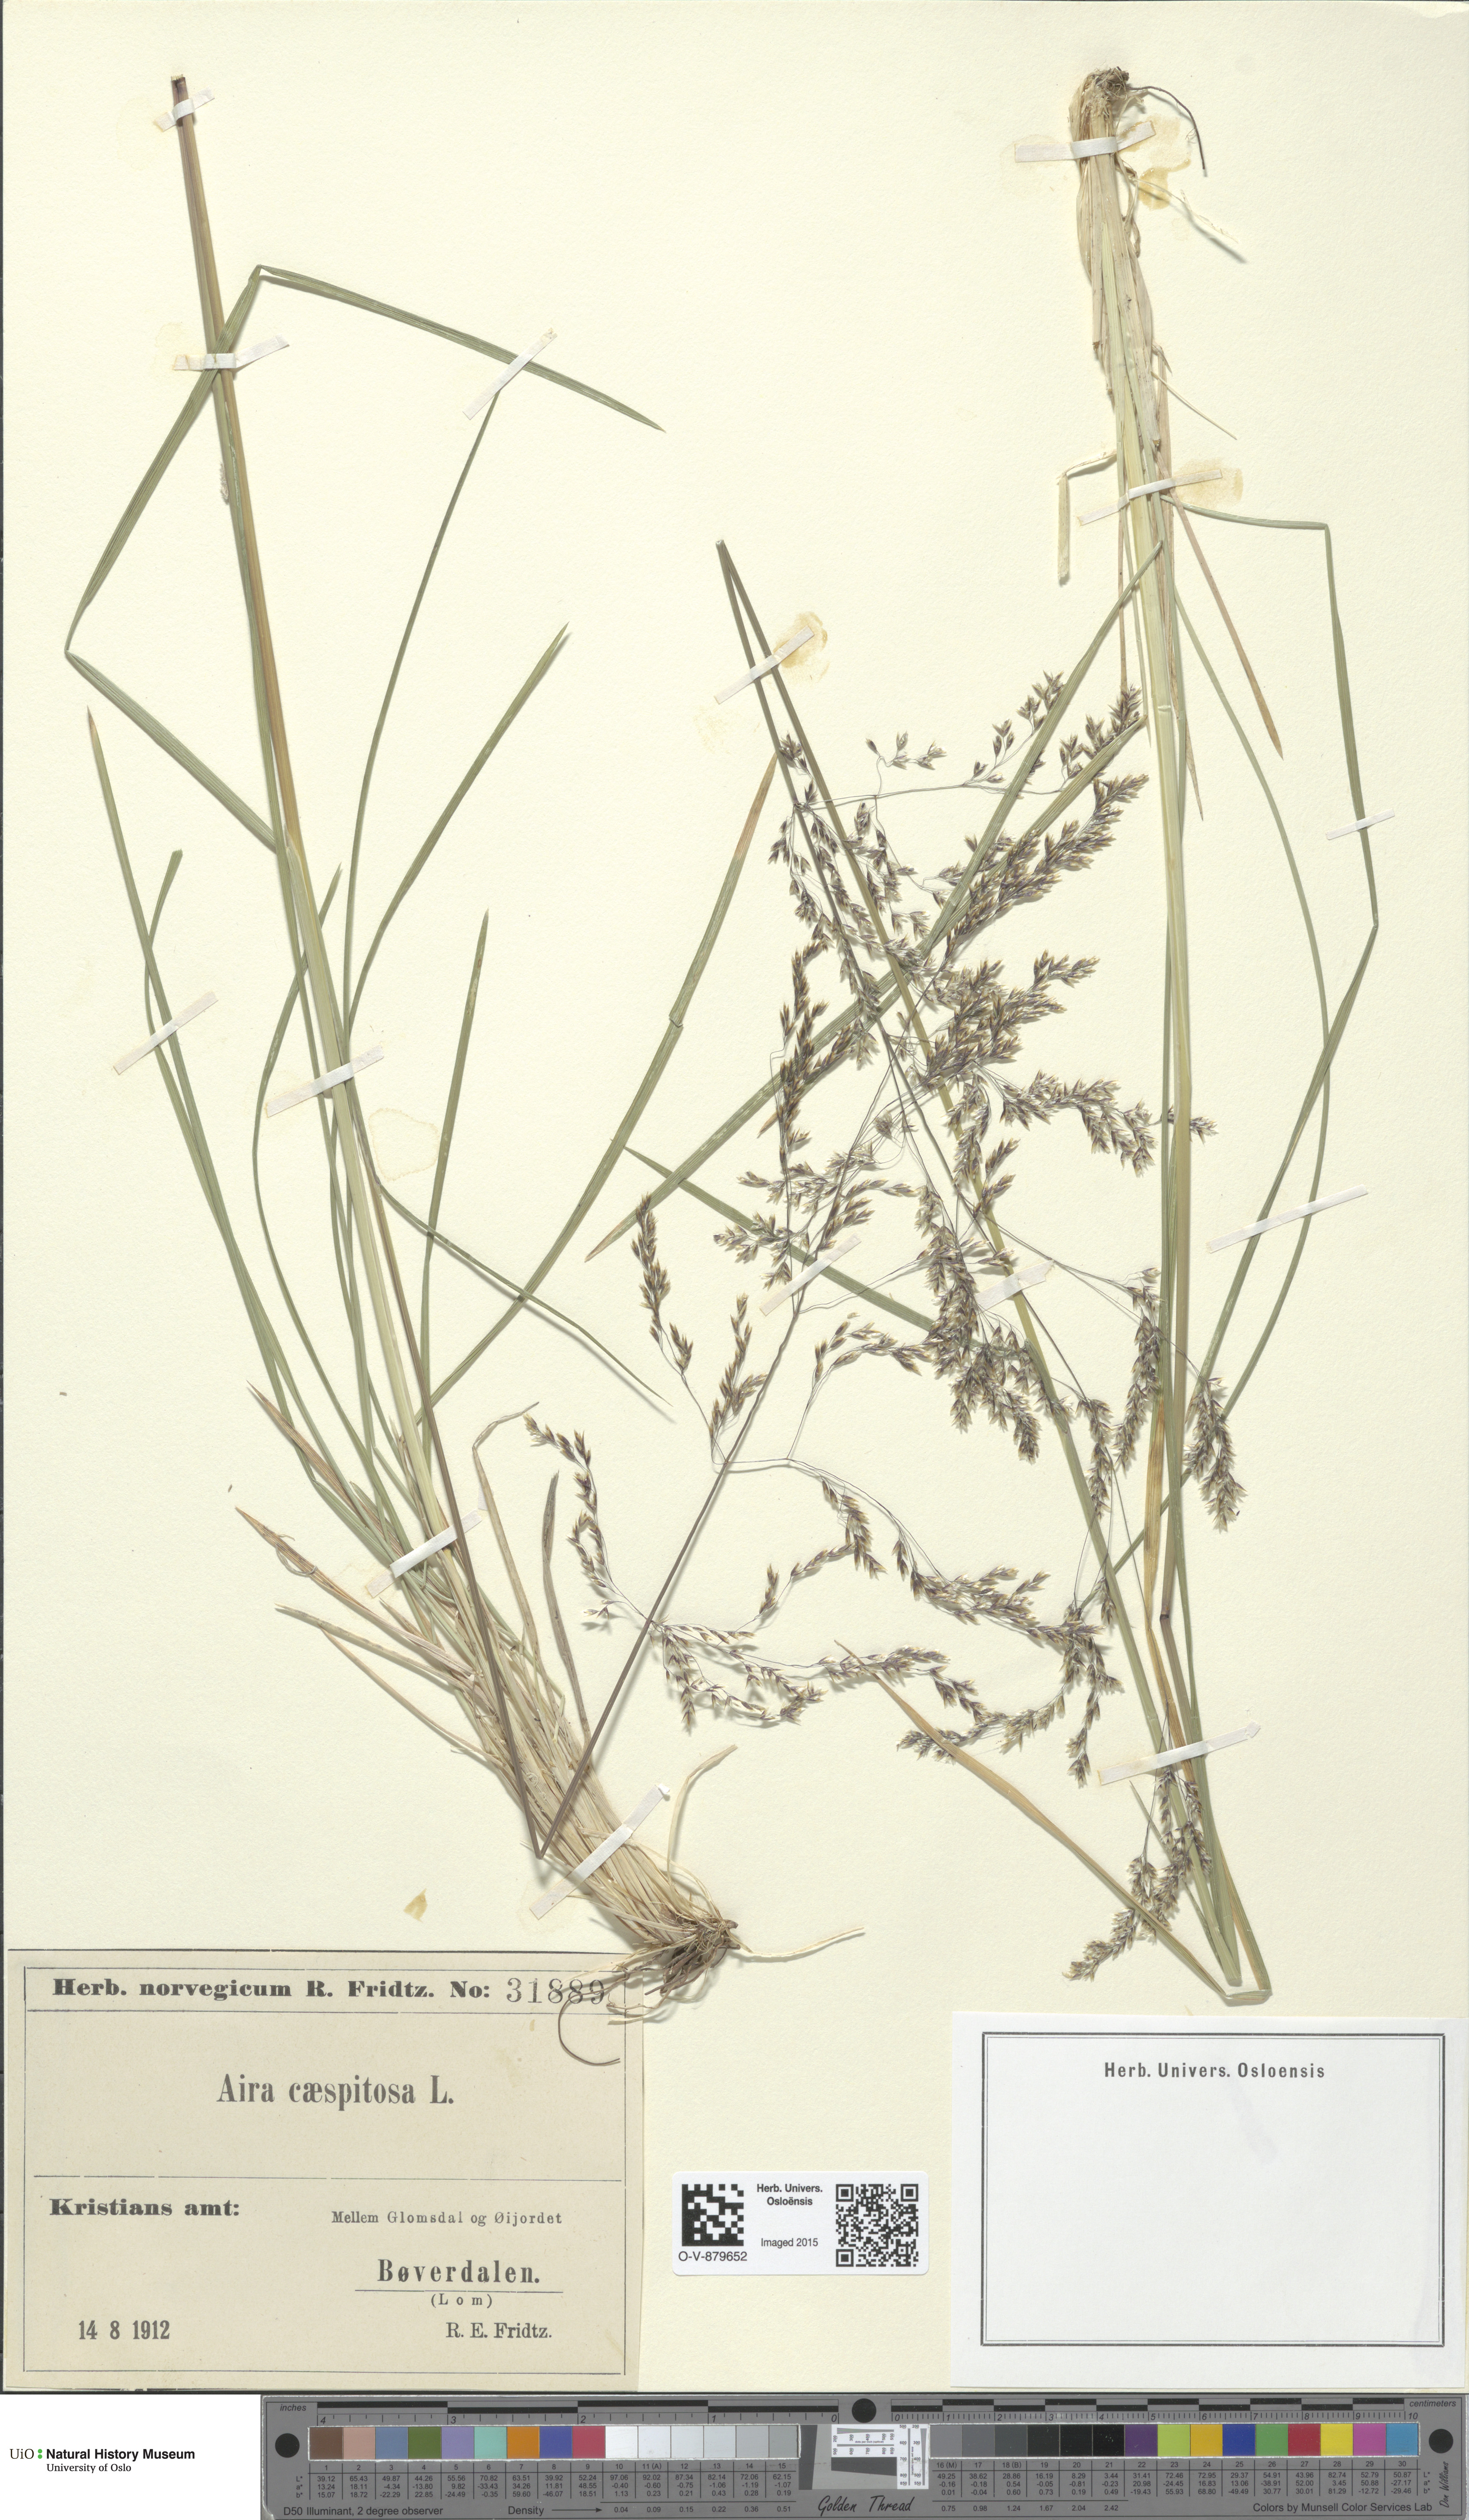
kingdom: Plantae
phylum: Tracheophyta
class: Liliopsida
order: Poales
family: Poaceae
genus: Deschampsia
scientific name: Deschampsia cespitosa
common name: Tufted hair-grass
